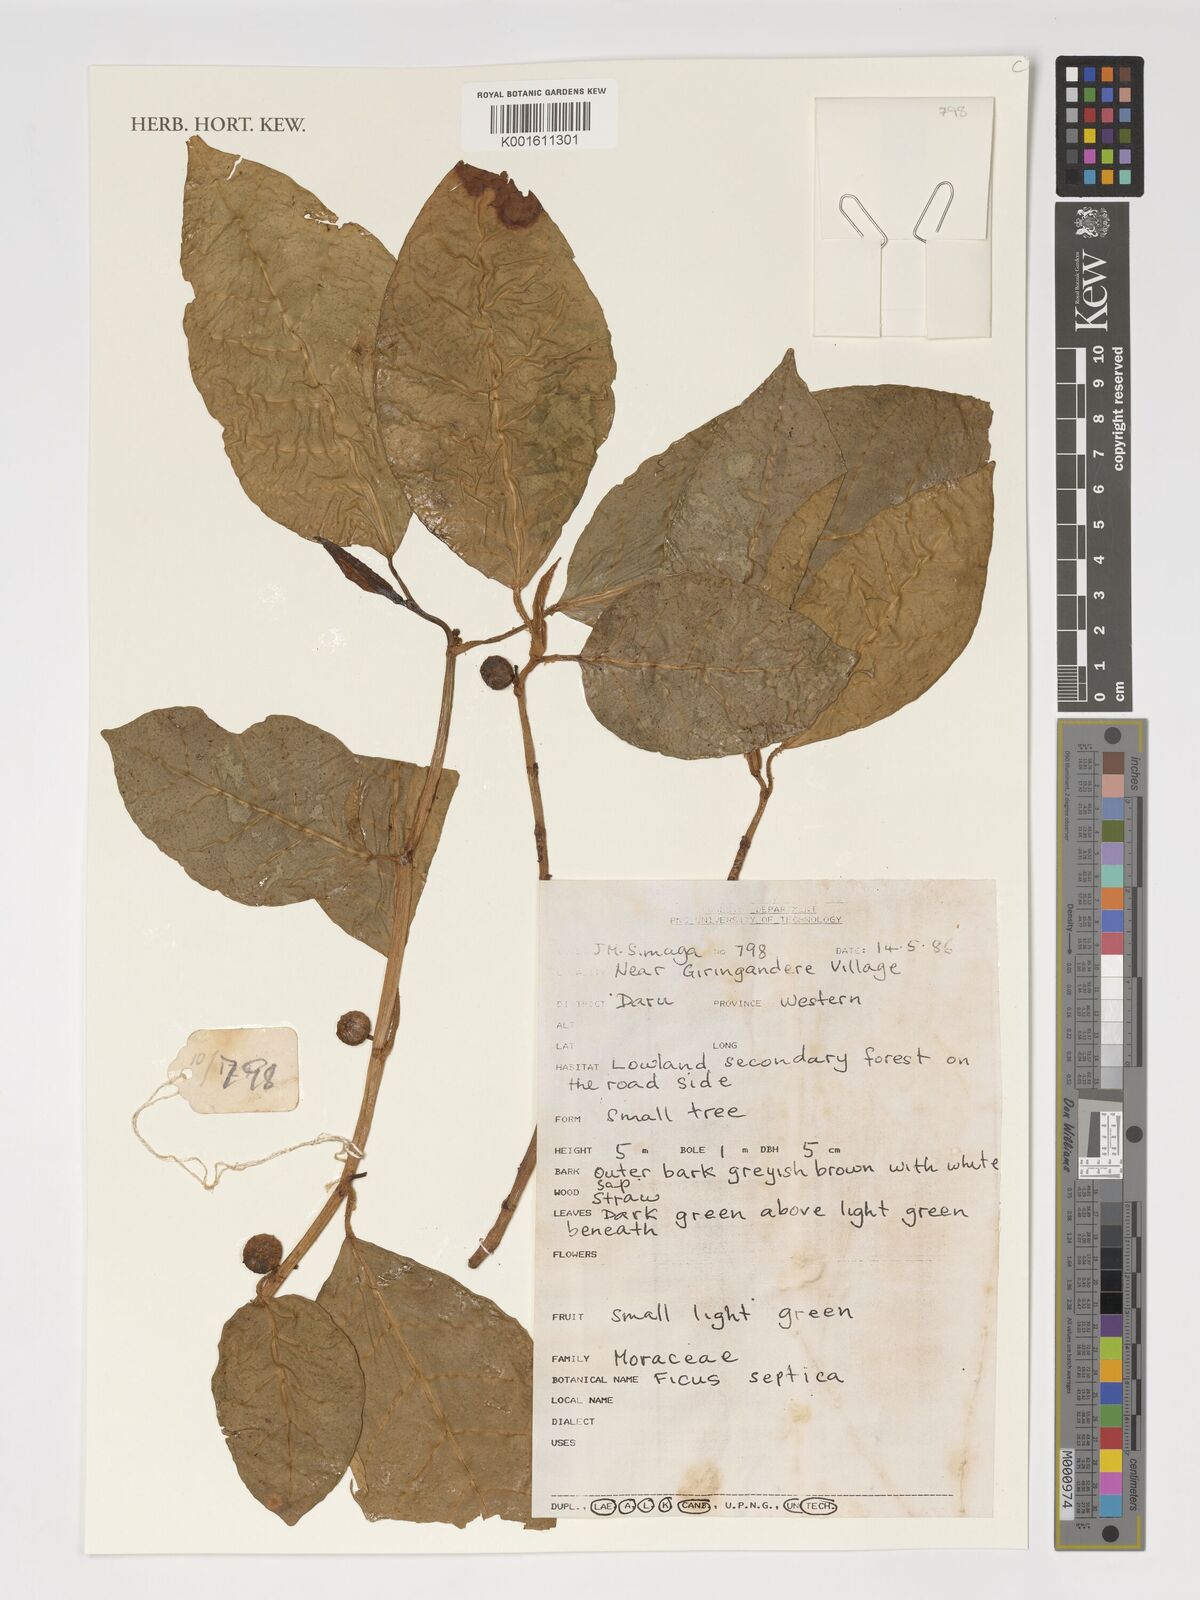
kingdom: Plantae
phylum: Tracheophyta
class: Magnoliopsida
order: Rosales
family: Moraceae
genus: Ficus
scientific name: Ficus septica
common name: Septic fig
